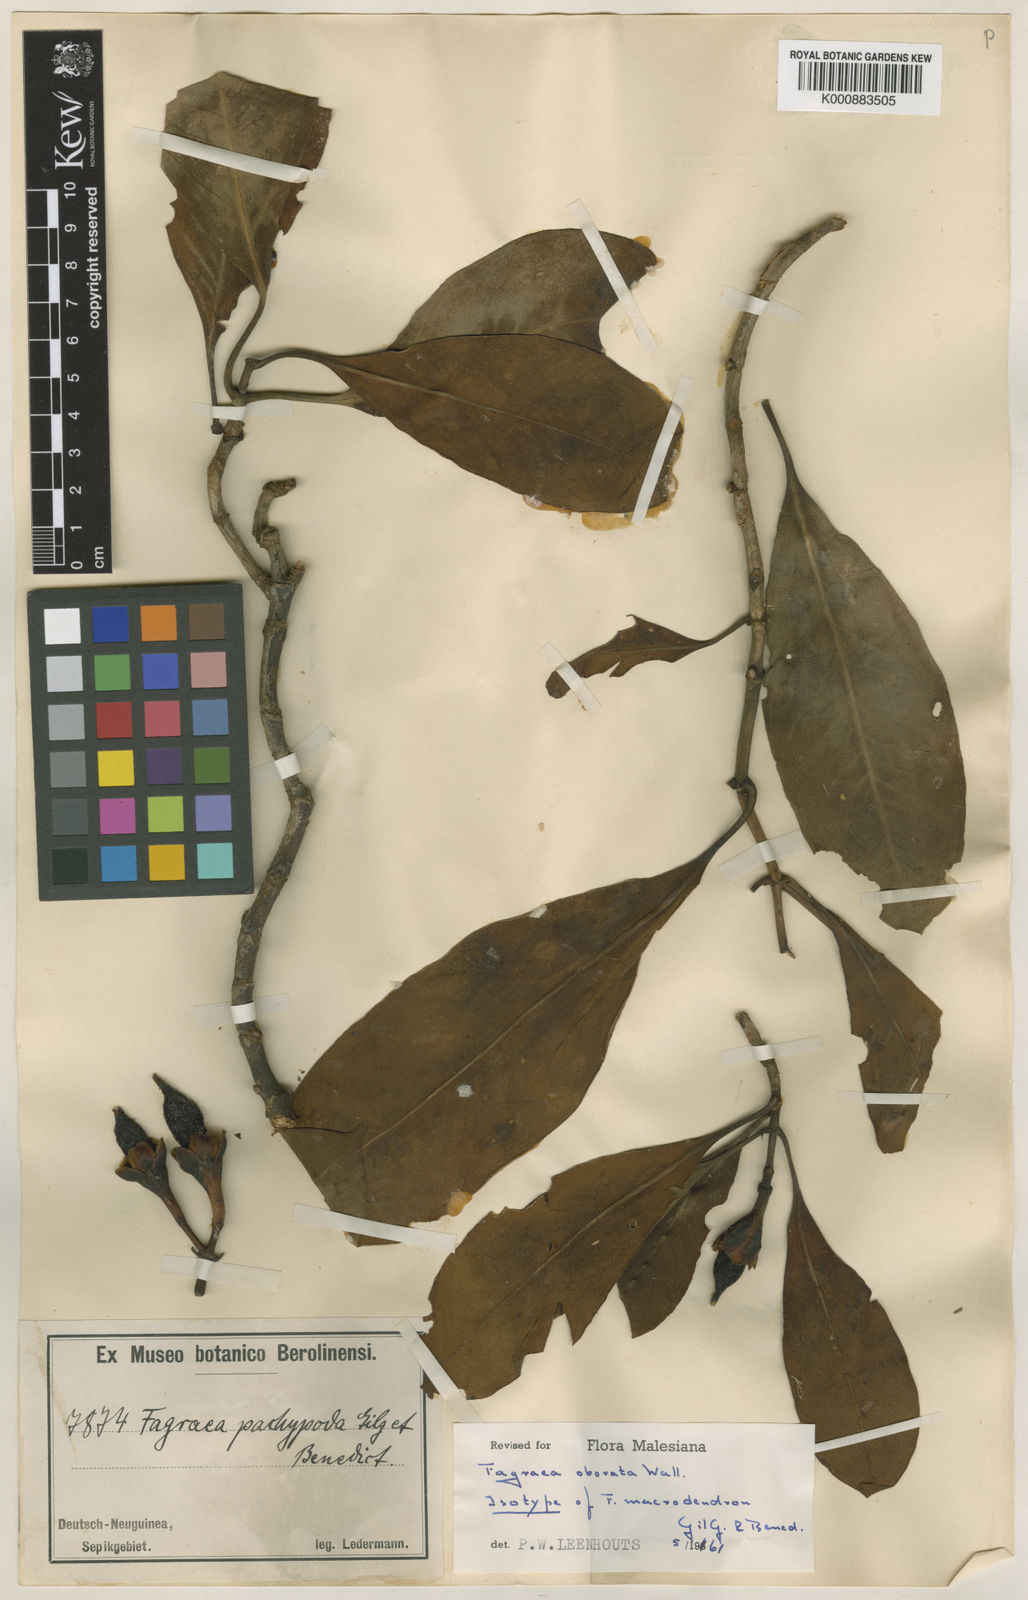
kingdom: Plantae
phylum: Tracheophyta
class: Magnoliopsida
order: Gentianales
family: Gentianaceae
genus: Fagraea
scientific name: Fagraea litoralis
